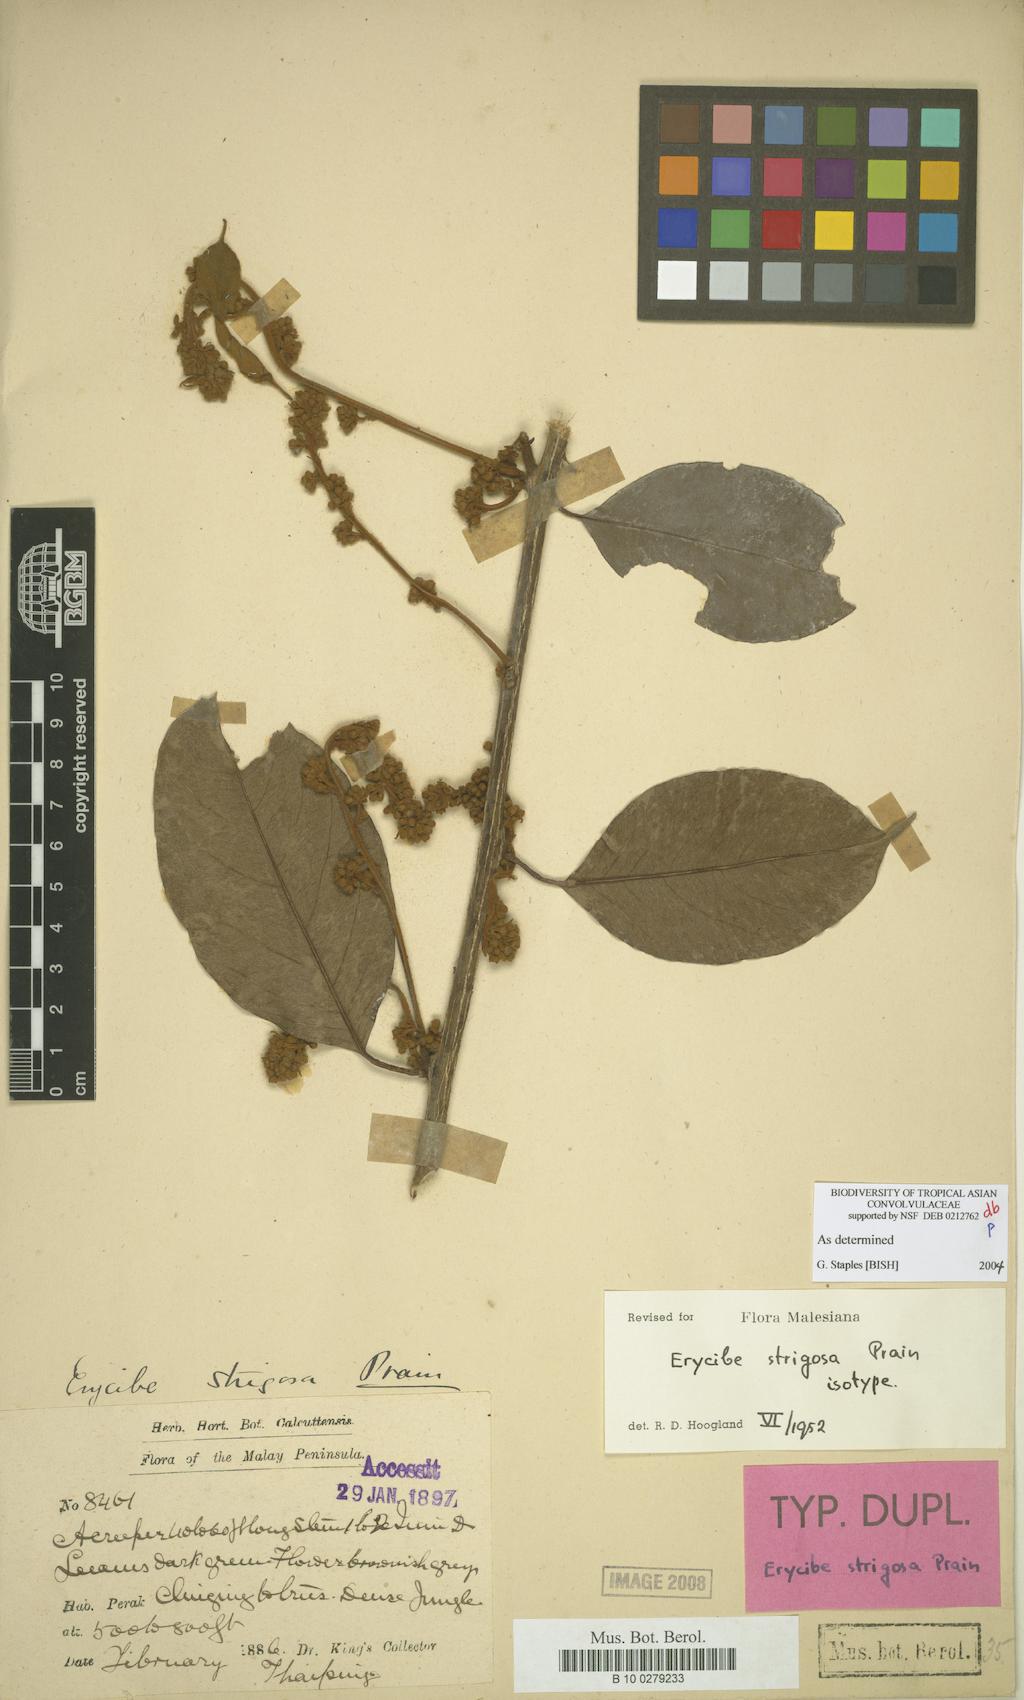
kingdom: Plantae
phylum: Tracheophyta
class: Magnoliopsida
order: Solanales
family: Convolvulaceae
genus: Erycibe
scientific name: Erycibe strigosa
